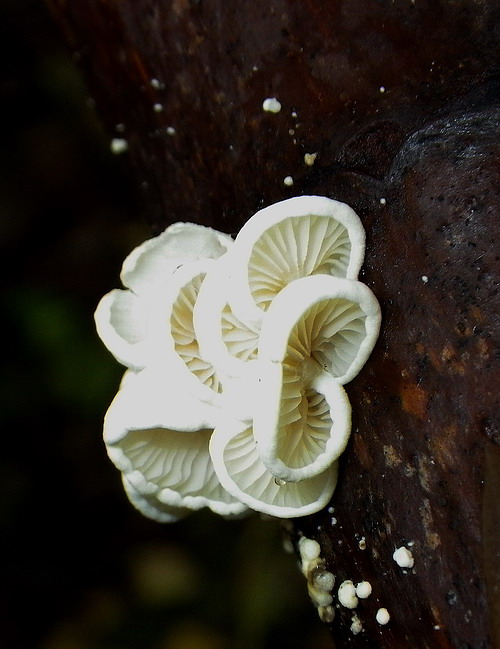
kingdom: Fungi
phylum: Basidiomycota
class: Agaricomycetes
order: Agaricales
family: Crepidotaceae
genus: Crepidotus
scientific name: Crepidotus luteolus
